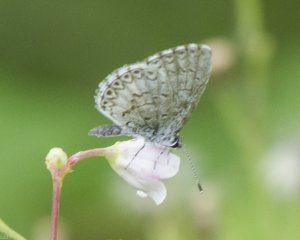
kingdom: Animalia
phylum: Arthropoda
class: Insecta
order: Lepidoptera
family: Lycaenidae
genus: Cyaniris
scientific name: Cyaniris neglecta
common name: Summer Azure
